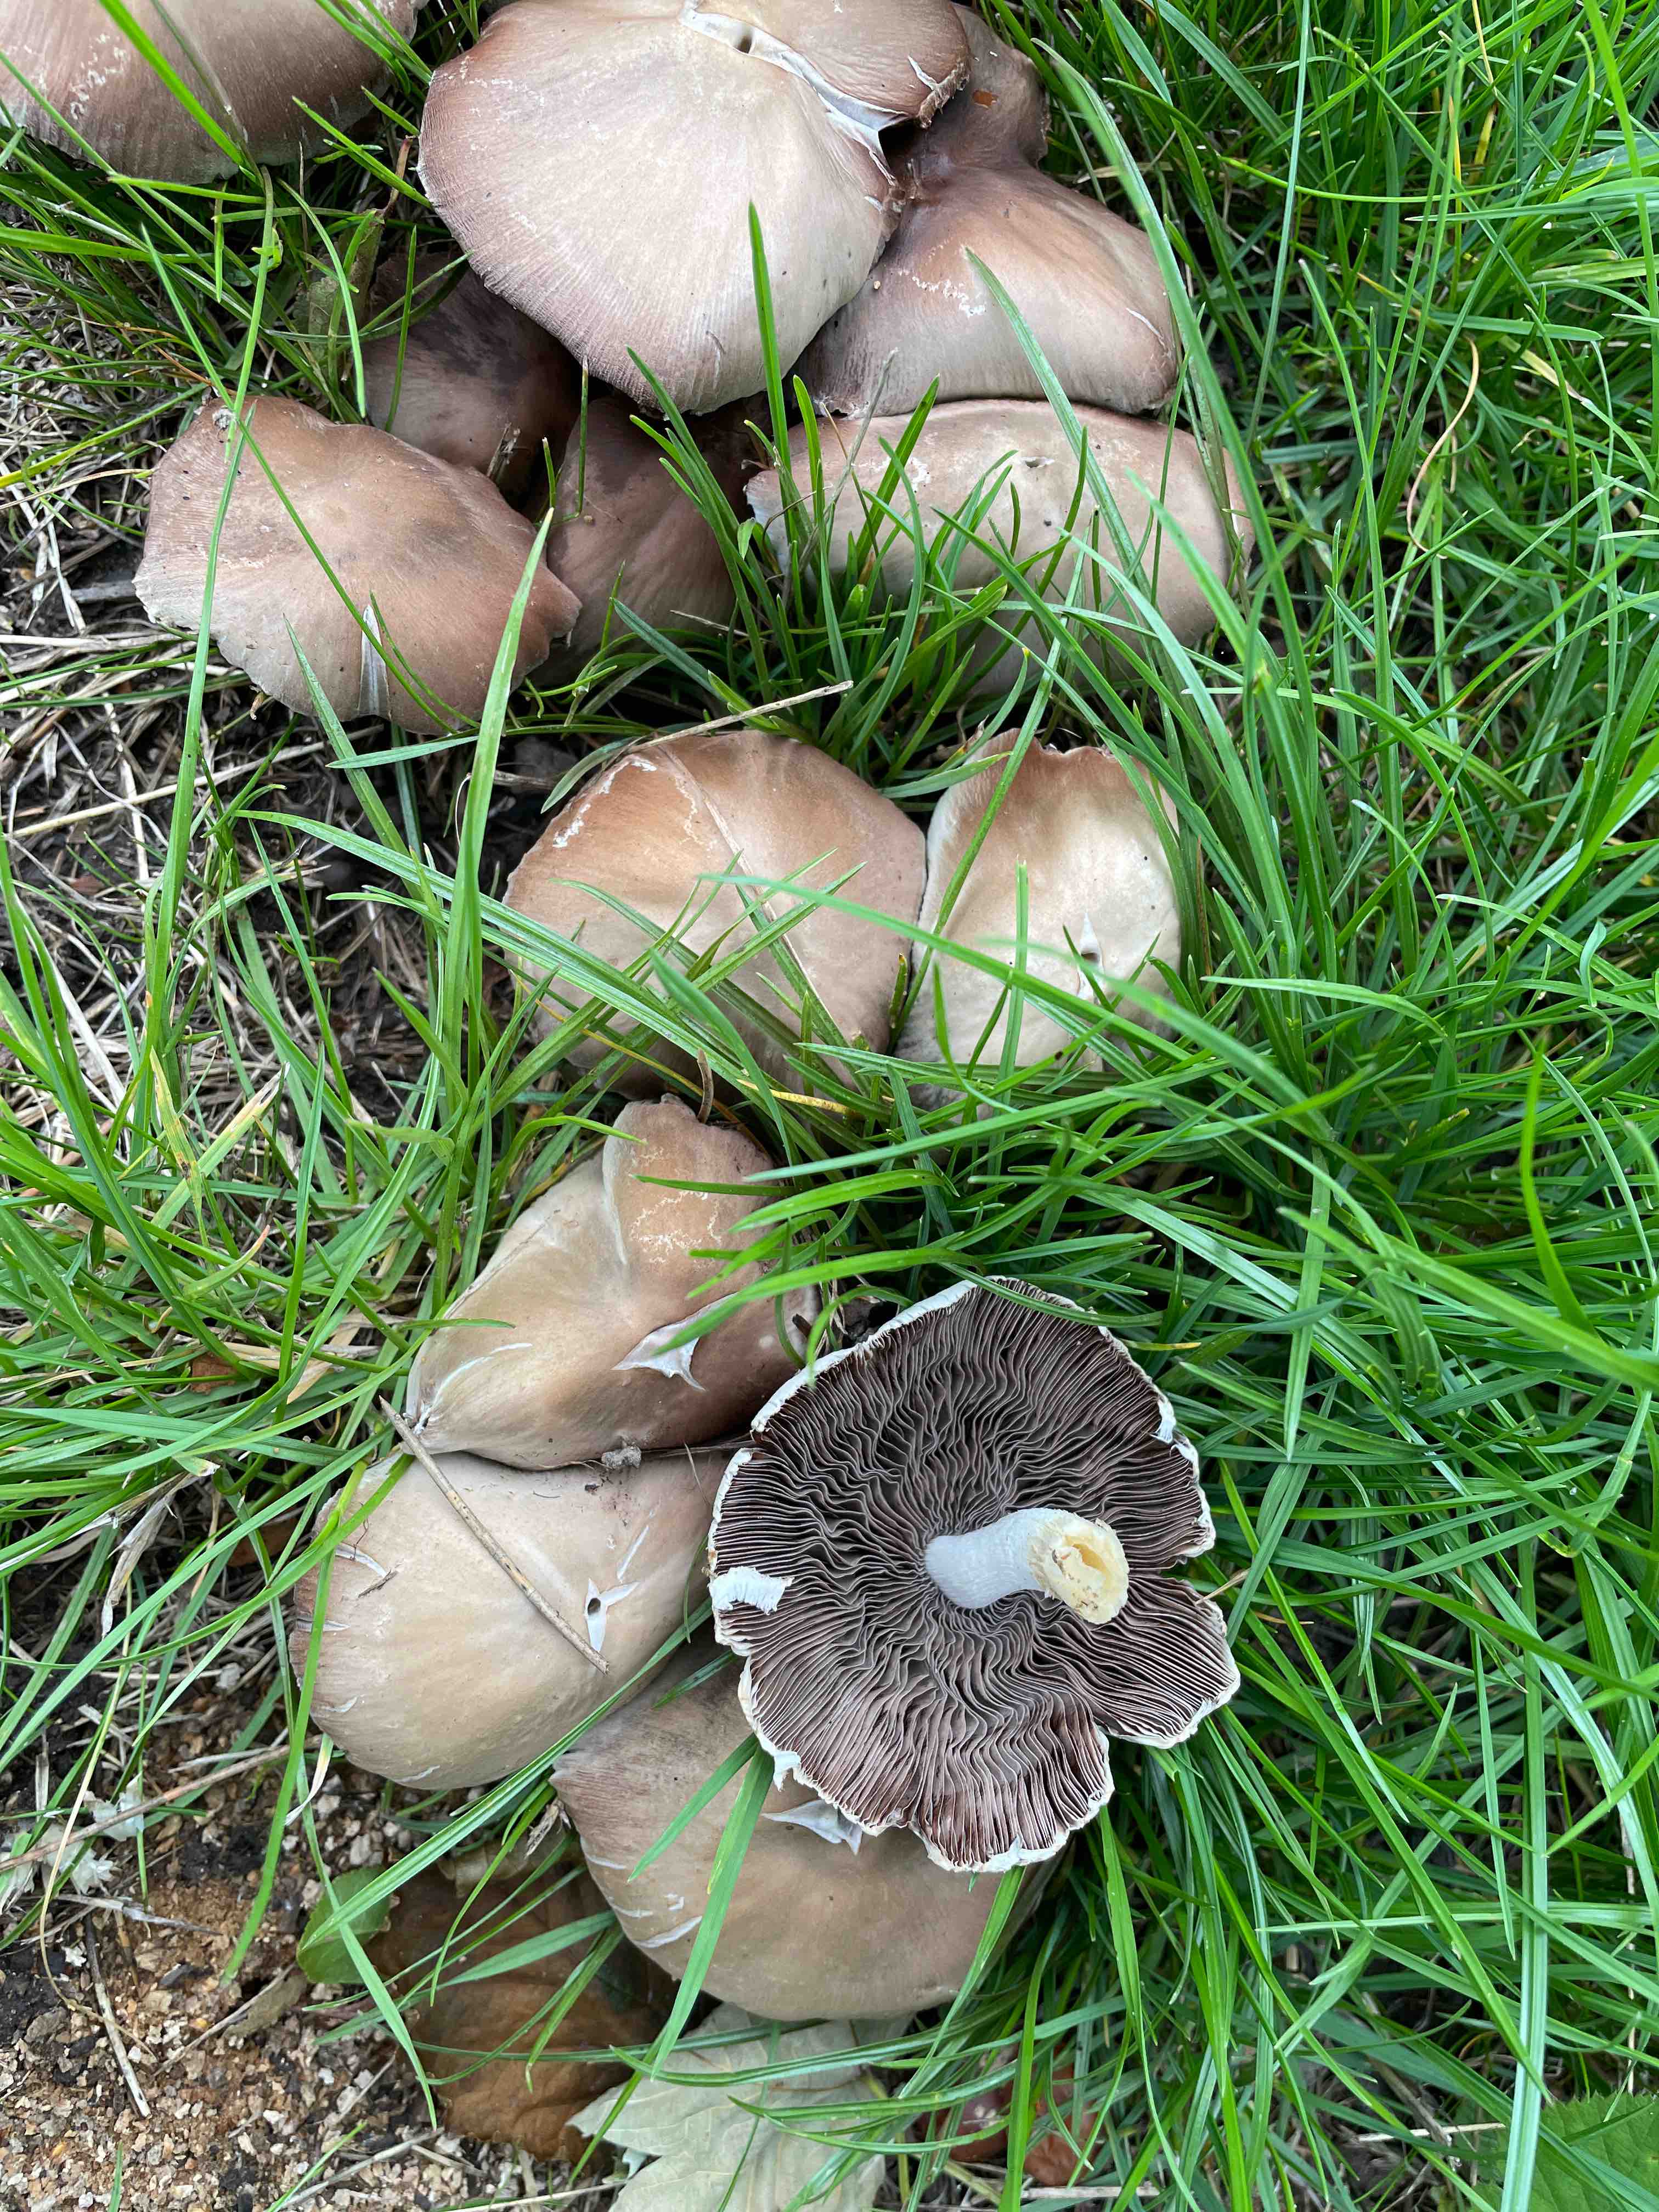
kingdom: Fungi
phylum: Basidiomycota
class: Agaricomycetes
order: Agaricales
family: Psathyrellaceae
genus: Candolleomyces
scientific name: Candolleomyces candolleanus
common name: Candolles mørkhat
